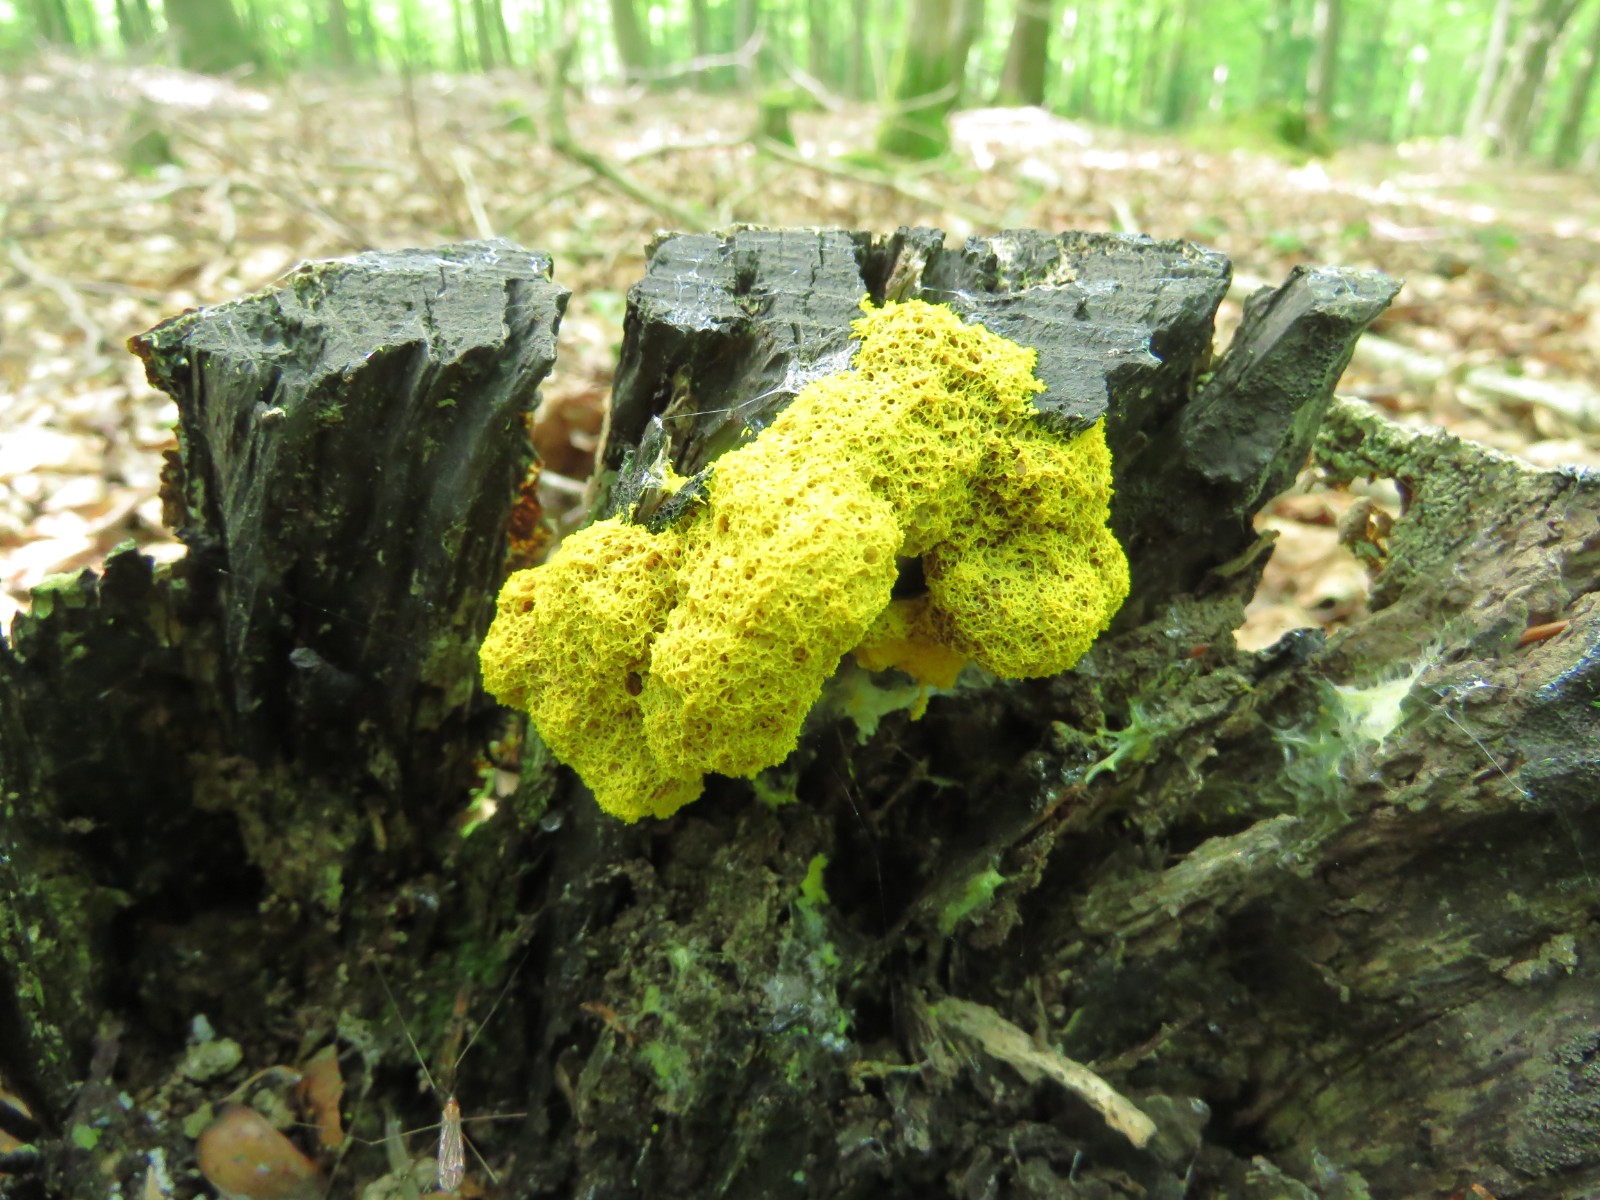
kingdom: Protozoa
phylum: Mycetozoa
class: Myxomycetes
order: Physarales
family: Physaraceae
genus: Fuligo
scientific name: Fuligo septica
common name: gul troldsmør
